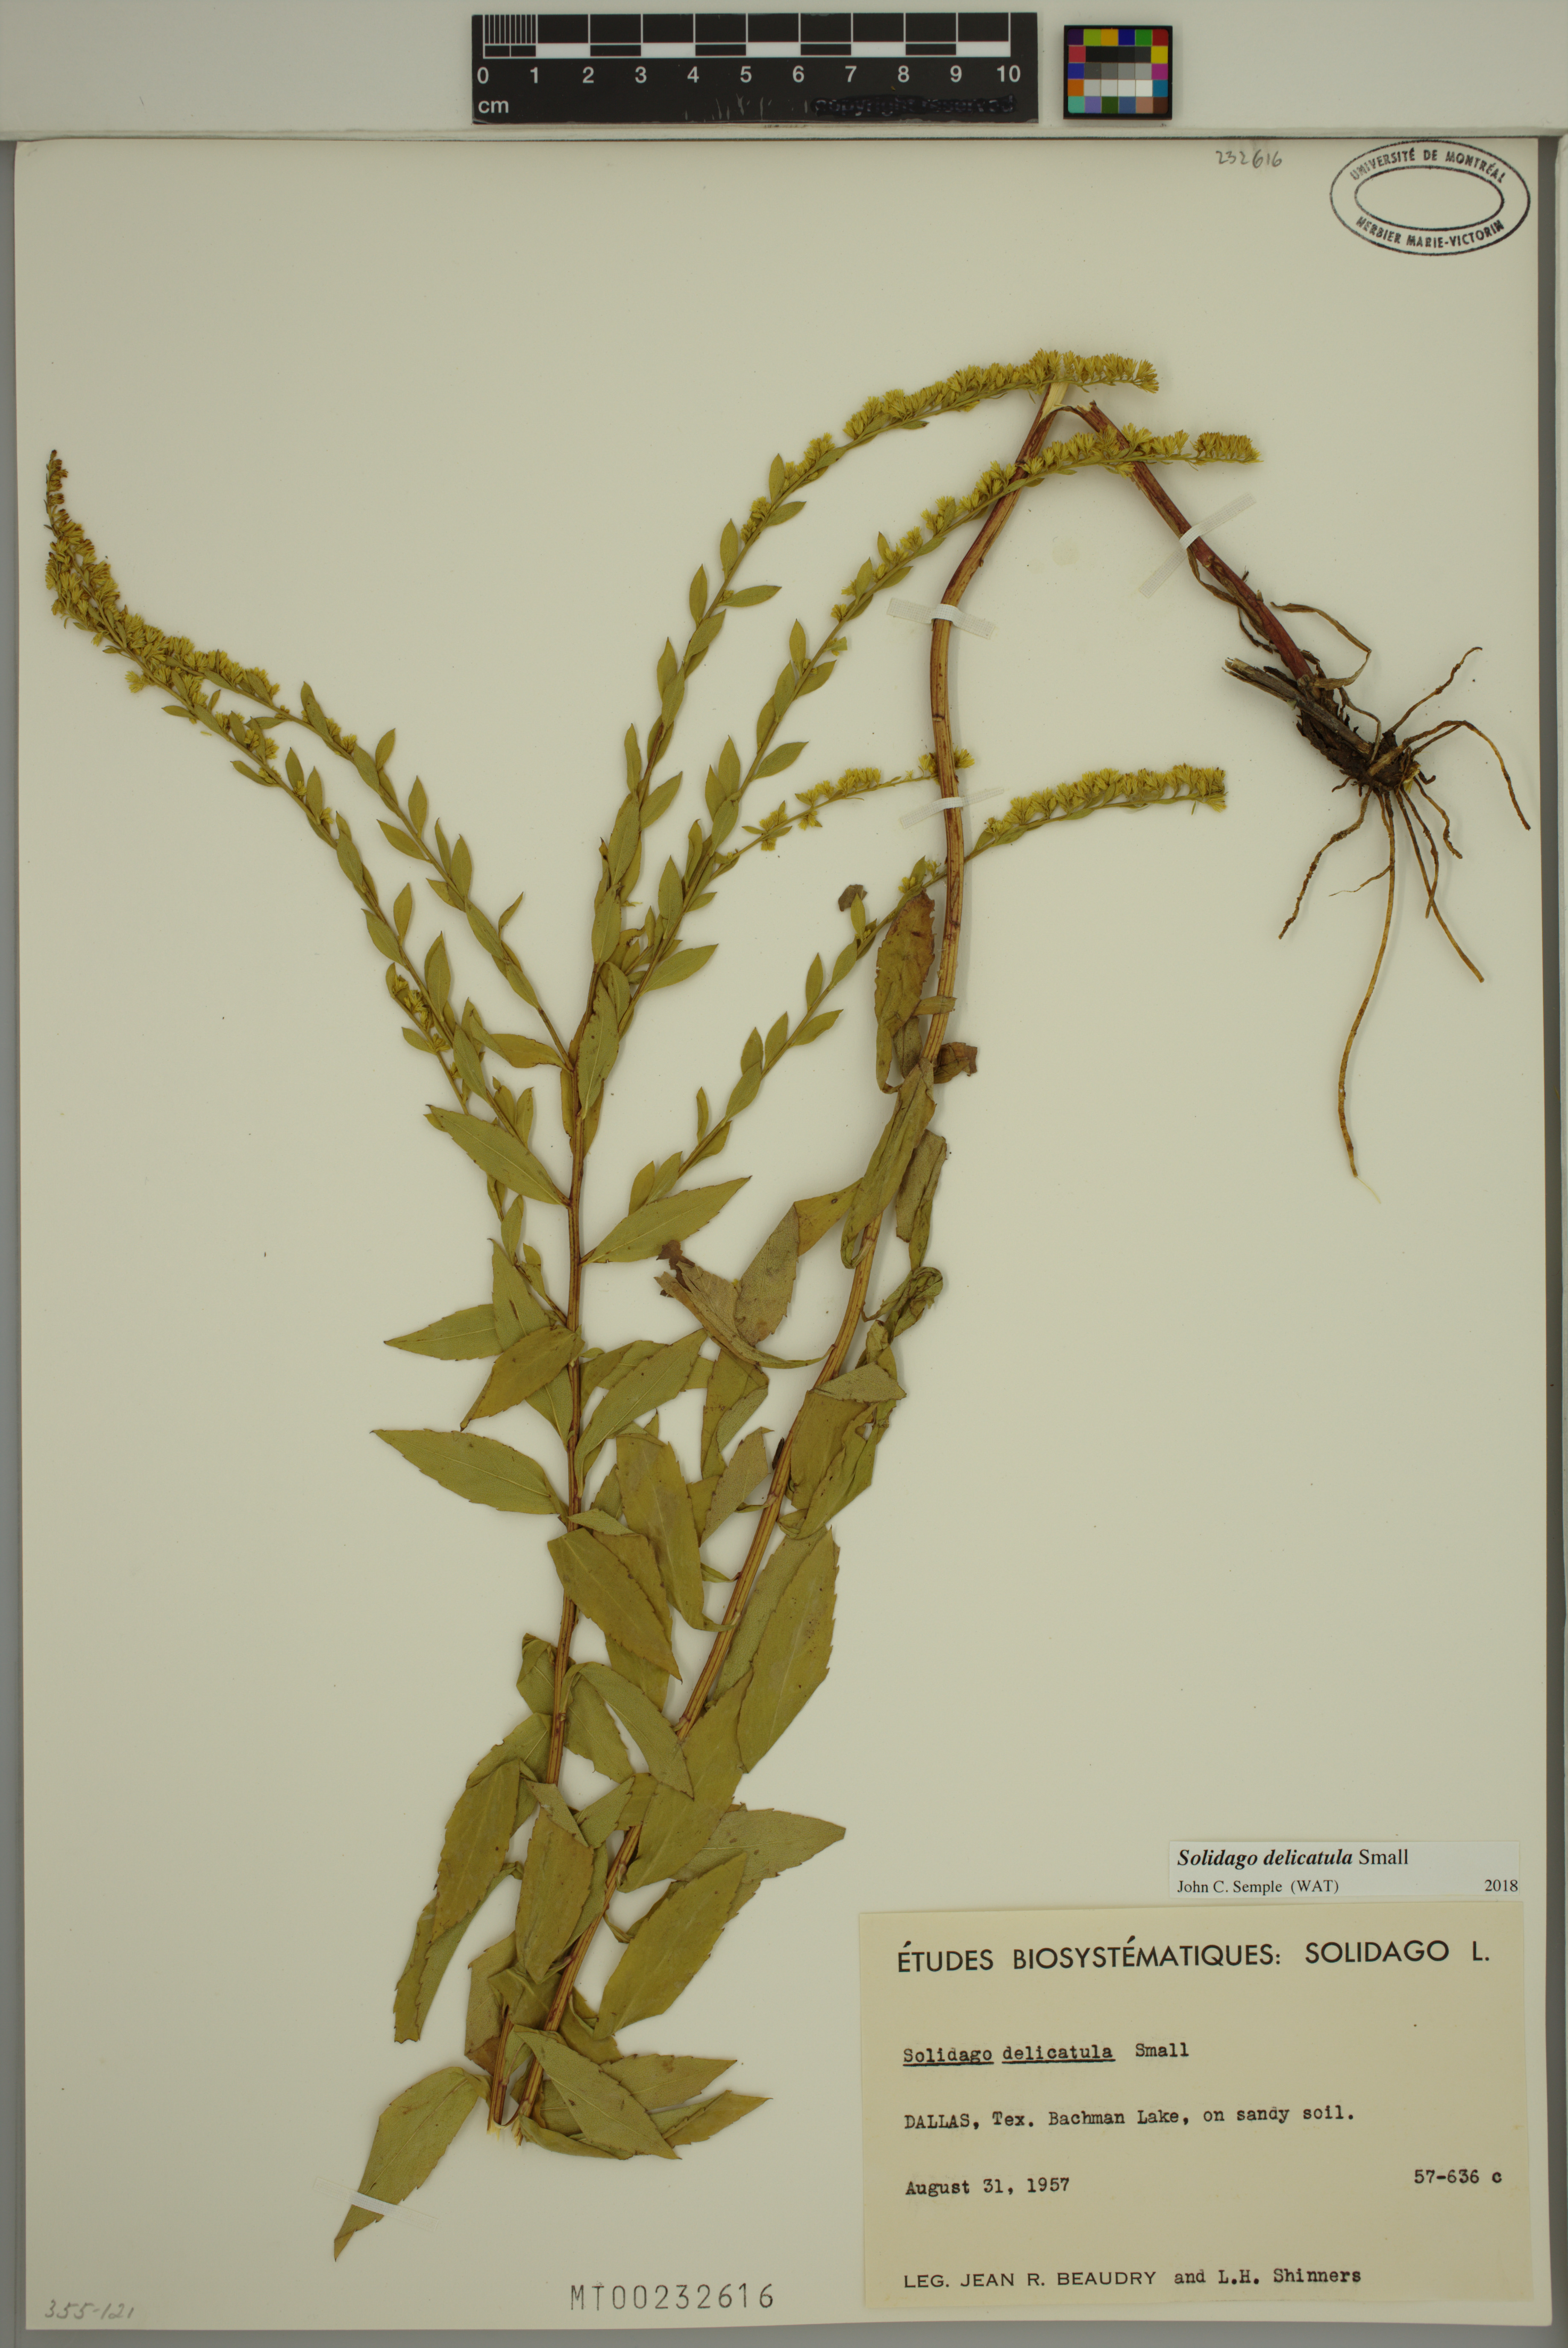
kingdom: Plantae
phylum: Tracheophyta
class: Magnoliopsida
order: Asterales
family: Asteraceae
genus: Solidago
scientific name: Solidago delicatula
